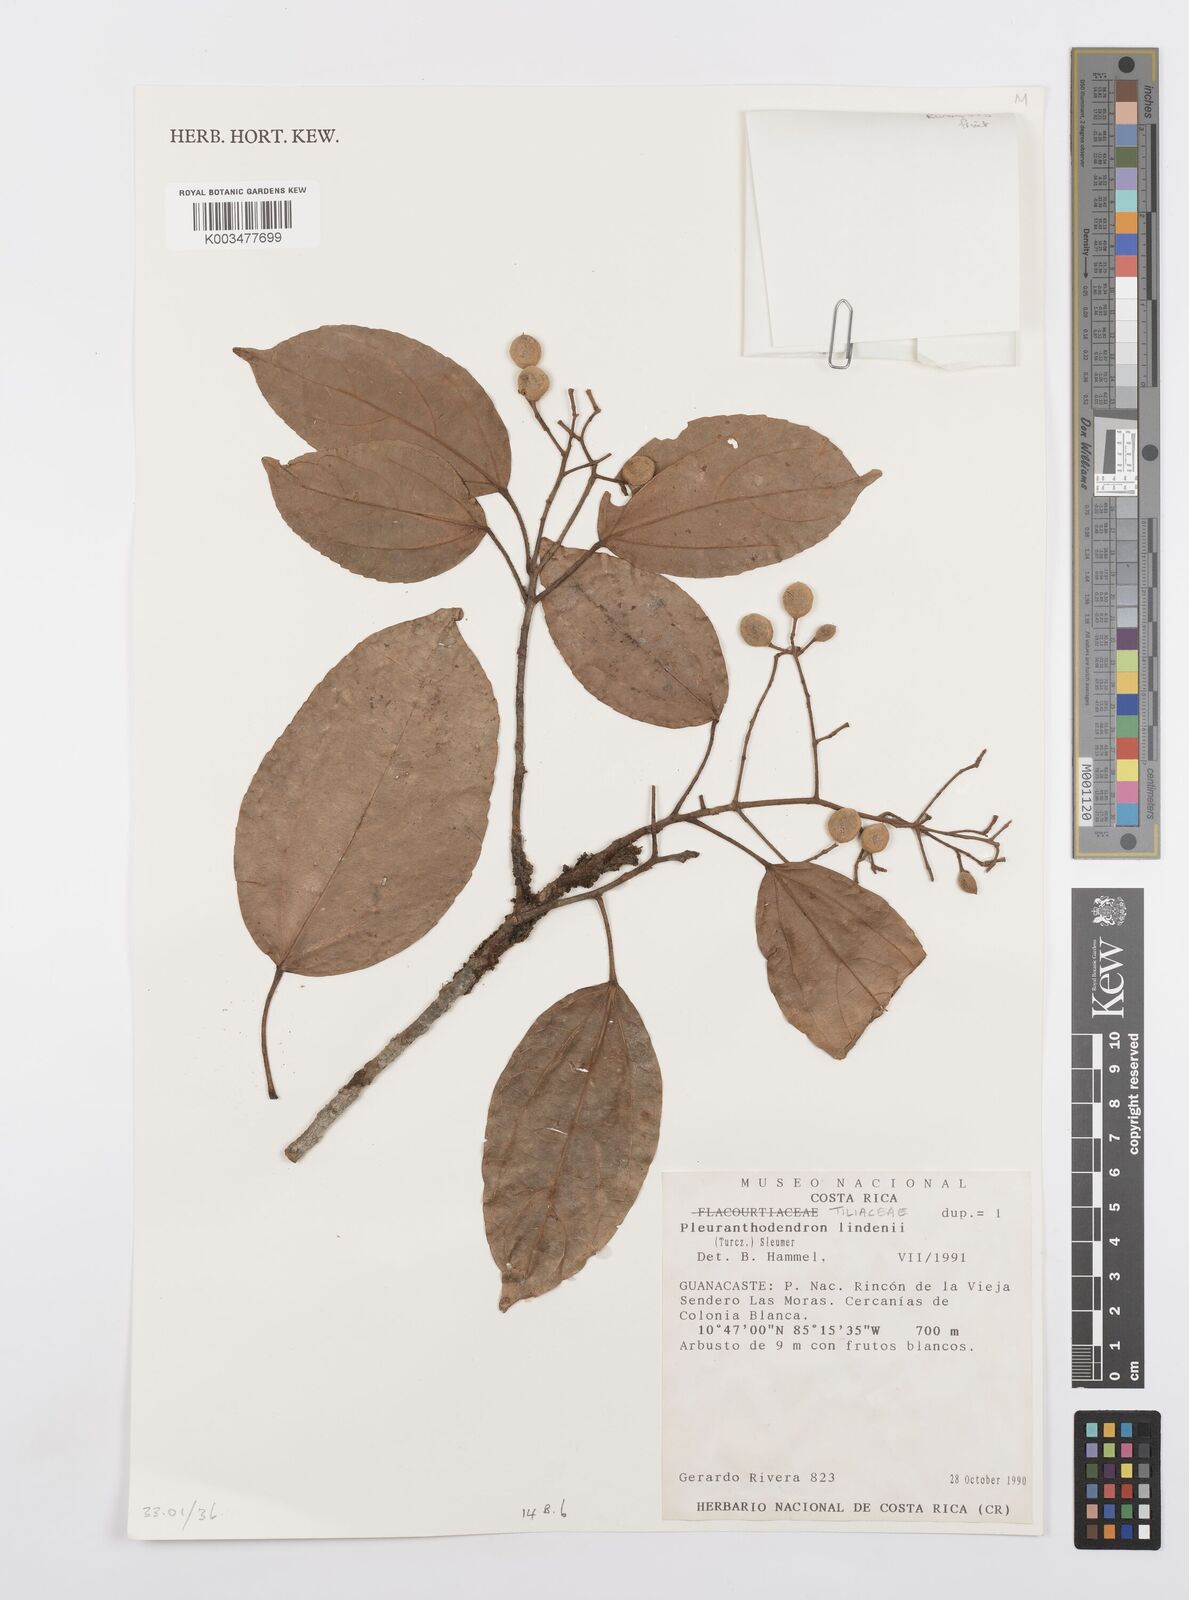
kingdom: Plantae
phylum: Tracheophyta
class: Magnoliopsida
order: Malpighiales
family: Salicaceae
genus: Pleuranthodendron
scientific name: Pleuranthodendron lindenii
